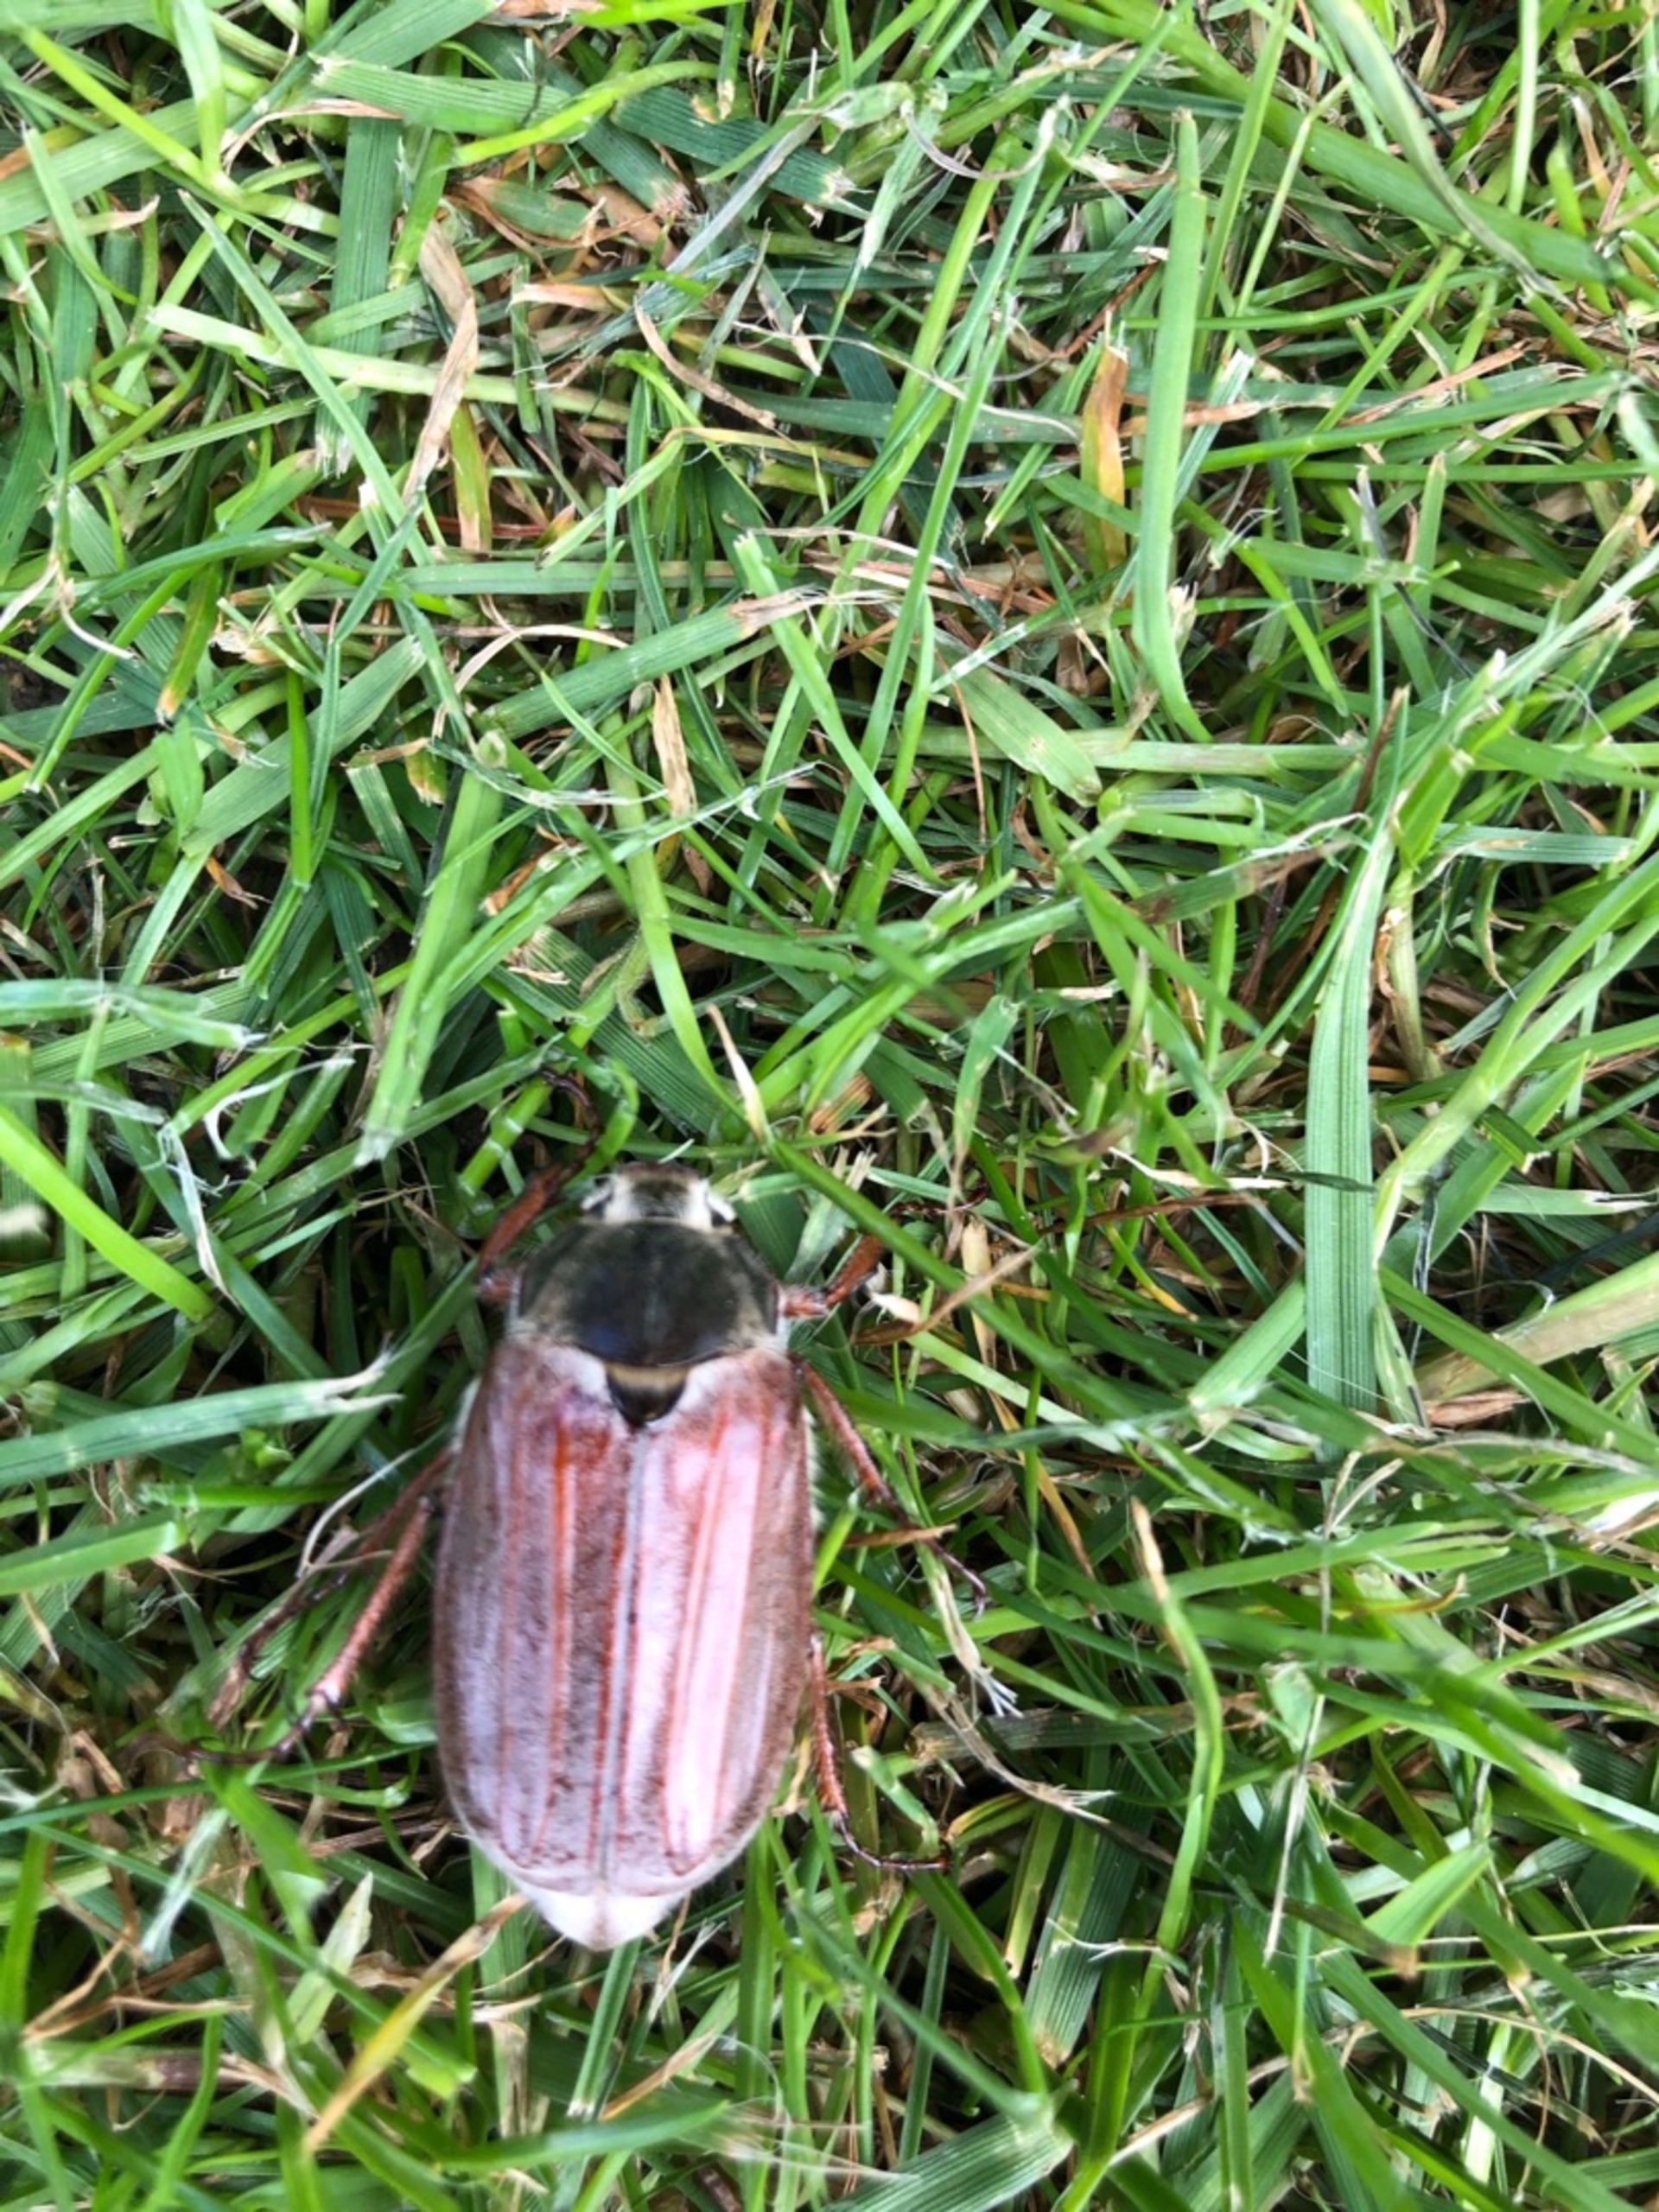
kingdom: Animalia
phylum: Arthropoda
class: Insecta
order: Coleoptera
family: Scarabaeidae
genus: Melolontha
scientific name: Melolontha melolontha
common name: Almindelig oldenborre
